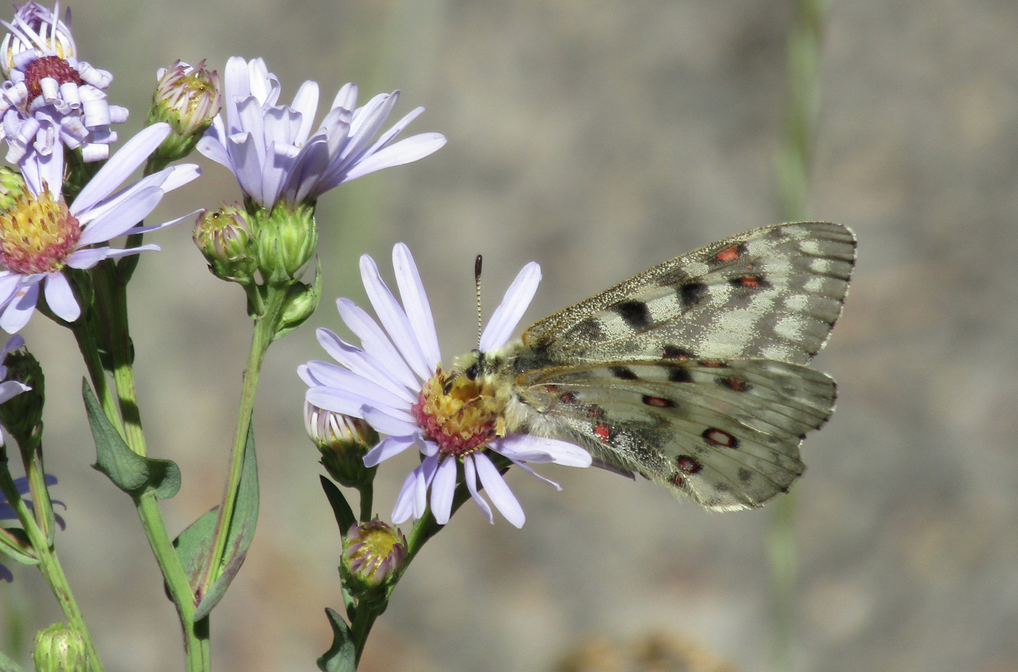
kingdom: Animalia
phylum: Arthropoda
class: Insecta
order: Lepidoptera
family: Papilionidae
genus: Parnassius
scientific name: Parnassius smintheus
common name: Rocky Mountain Parnassian
